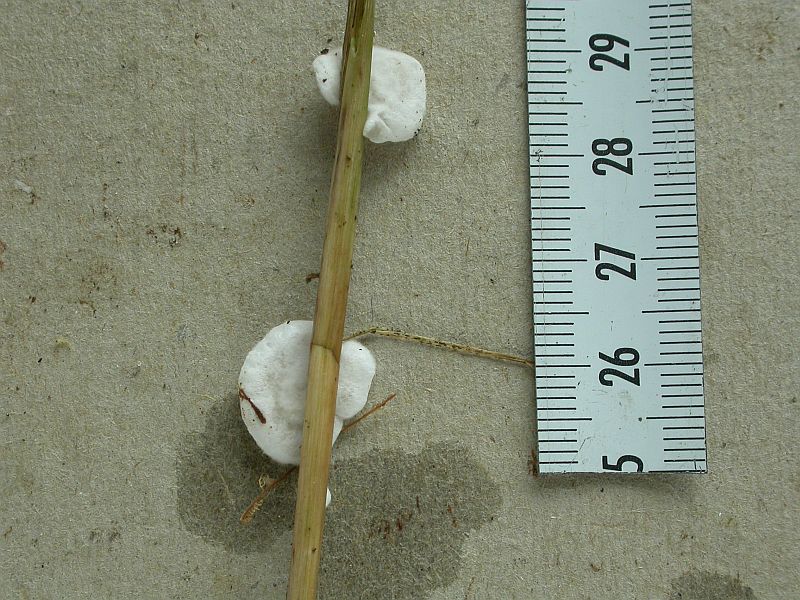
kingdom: Fungi
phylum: Basidiomycota
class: Agaricomycetes
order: Agaricales
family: Crepidotaceae
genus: Crepidotus
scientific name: Crepidotus variabilis
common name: forskelligformet muslingesvamp
